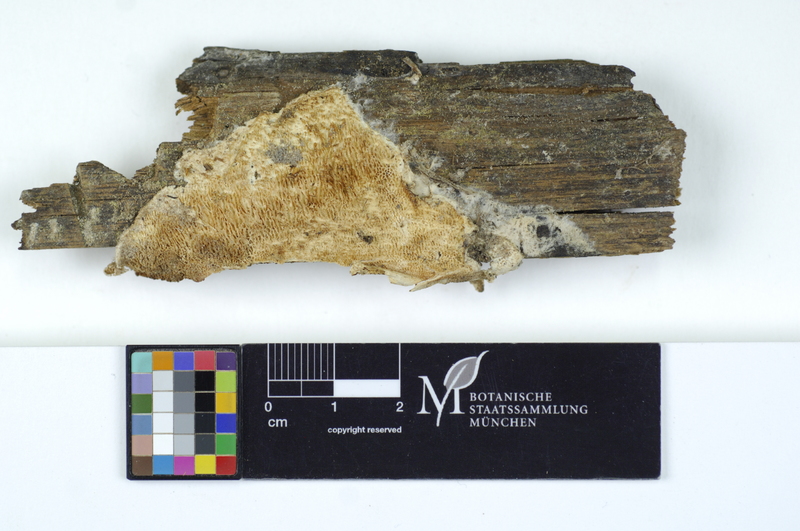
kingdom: Fungi
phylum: Basidiomycota
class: Agaricomycetes
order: Polyporales
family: Fibroporiaceae
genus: Fibroporia
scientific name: Fibroporia vaillantii
